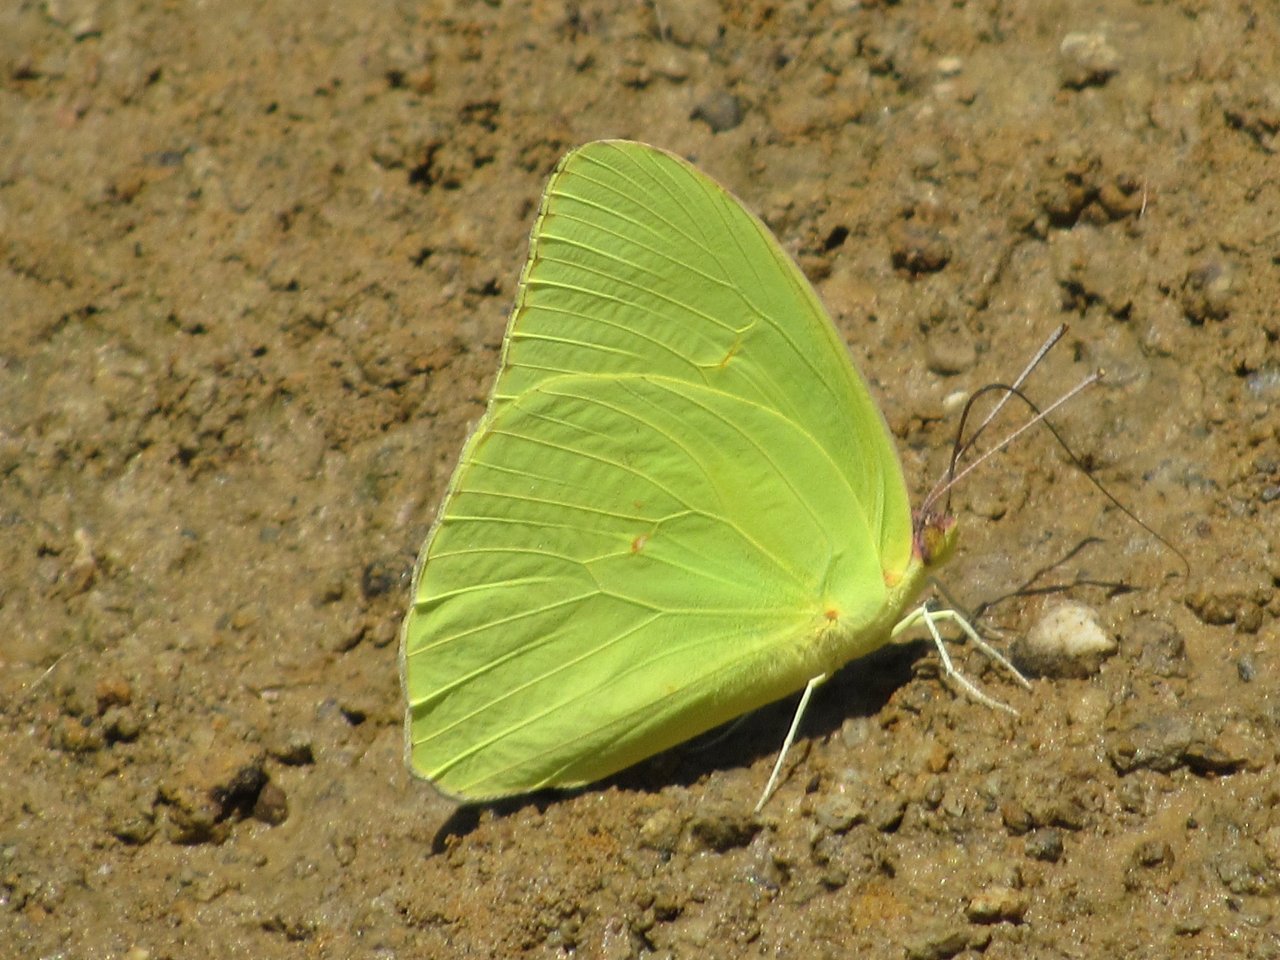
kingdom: Animalia
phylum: Arthropoda
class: Insecta
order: Lepidoptera
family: Pieridae
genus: Phoebis
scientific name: Phoebis sennae
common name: Cloudless Sulphur
